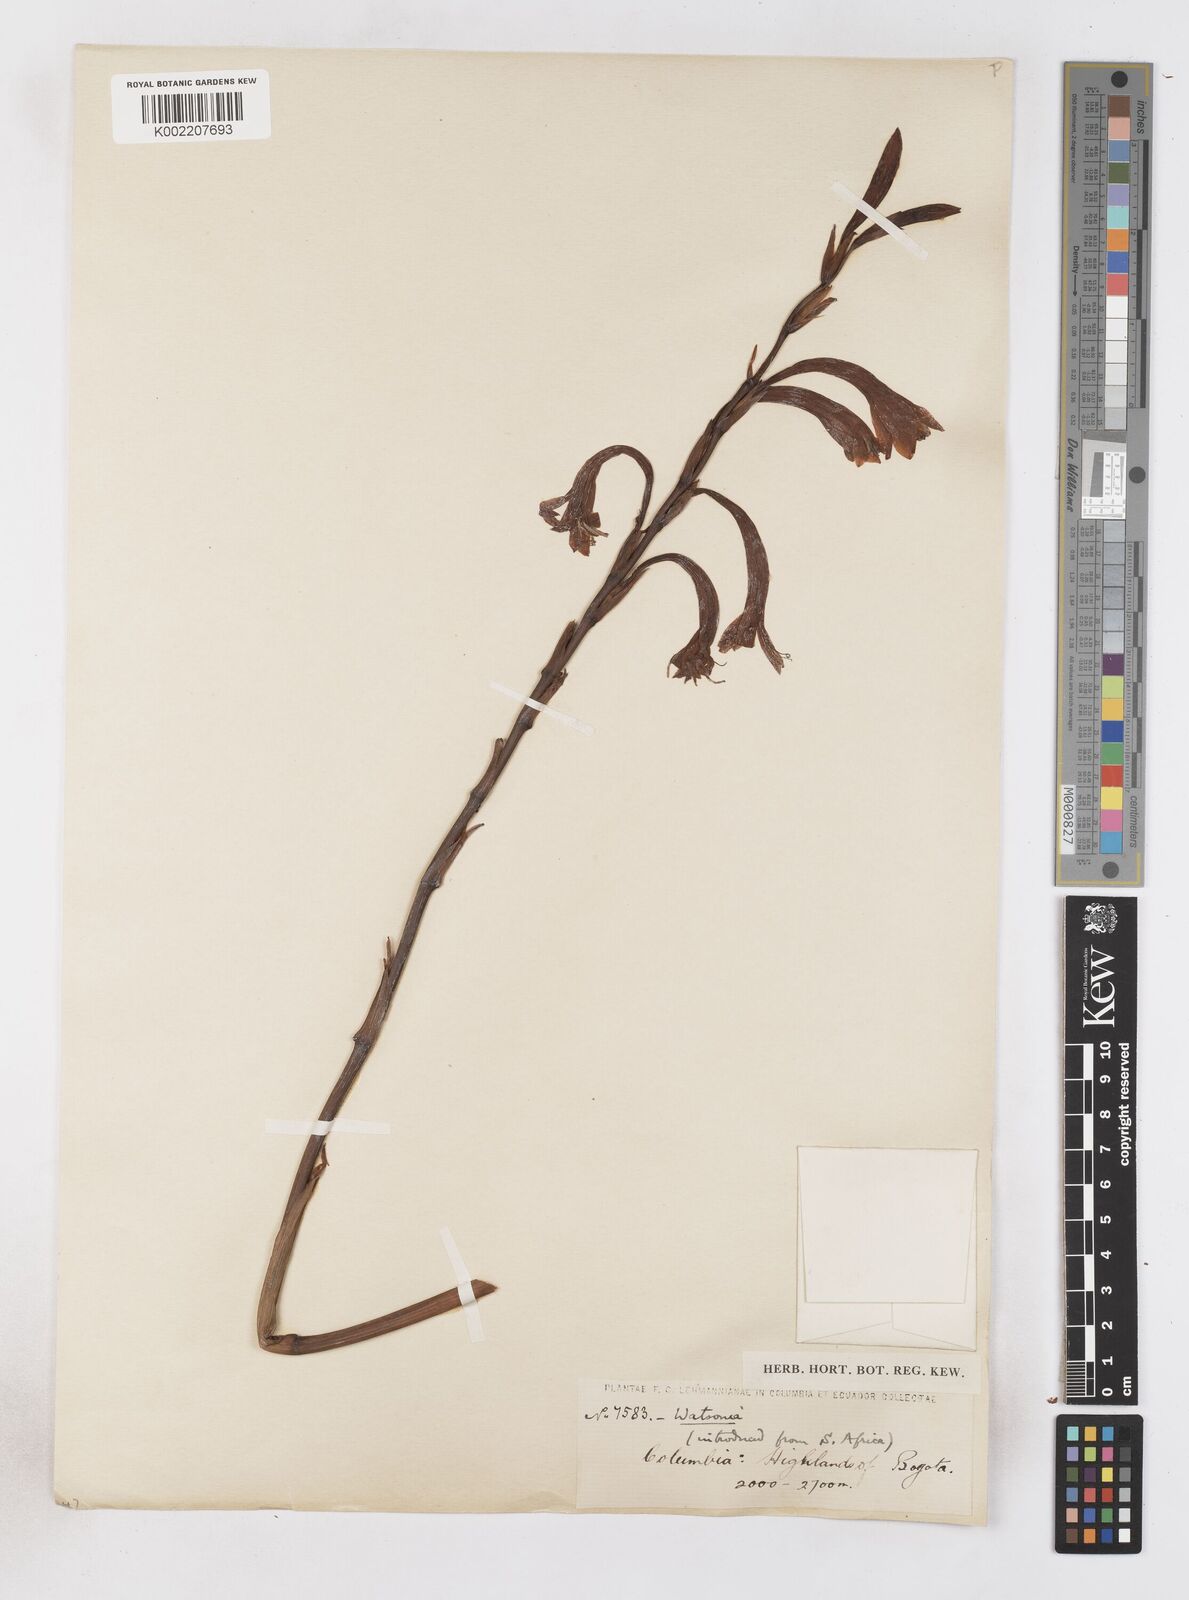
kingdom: Plantae
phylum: Tracheophyta
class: Liliopsida
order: Asparagales
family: Iridaceae
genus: Watsonia
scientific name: Watsonia meriana
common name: Bulbil bugle-lily
